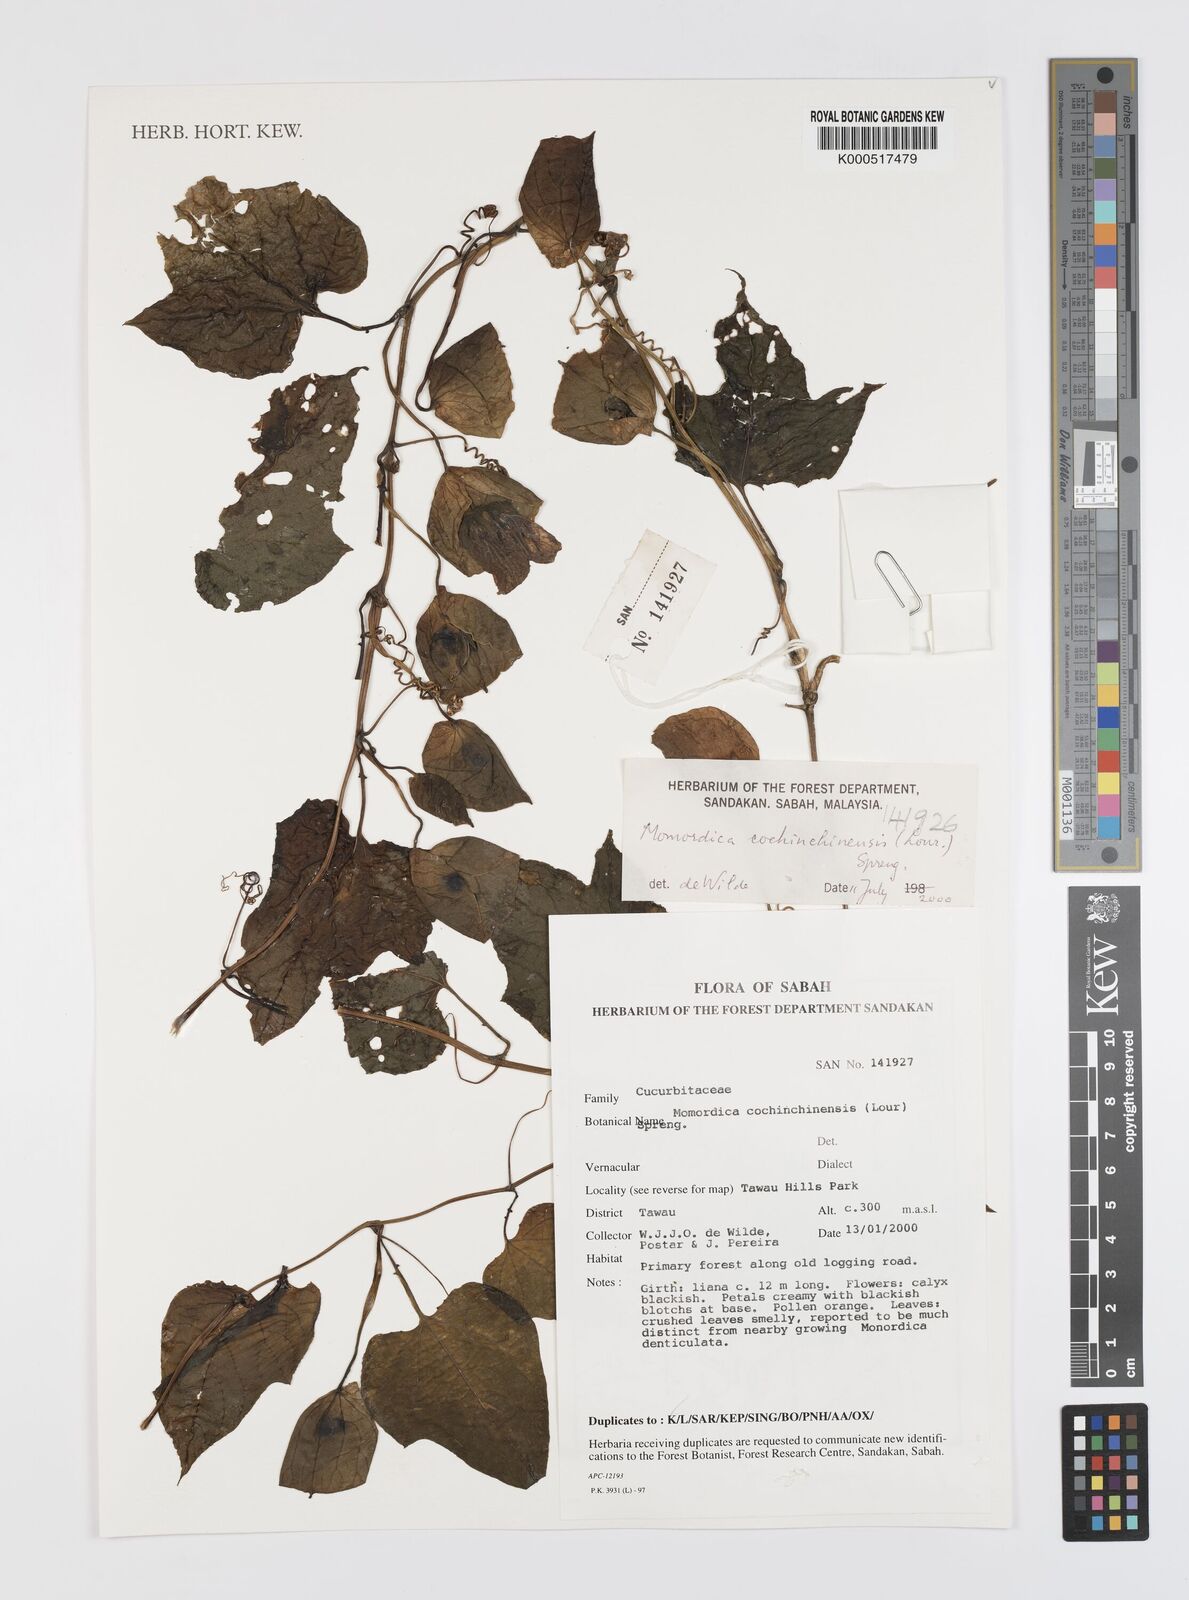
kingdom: Plantae
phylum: Tracheophyta
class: Magnoliopsida
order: Cucurbitales
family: Cucurbitaceae
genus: Momordica
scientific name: Momordica cochinchinensis
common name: Chinese bitter-cucumber
